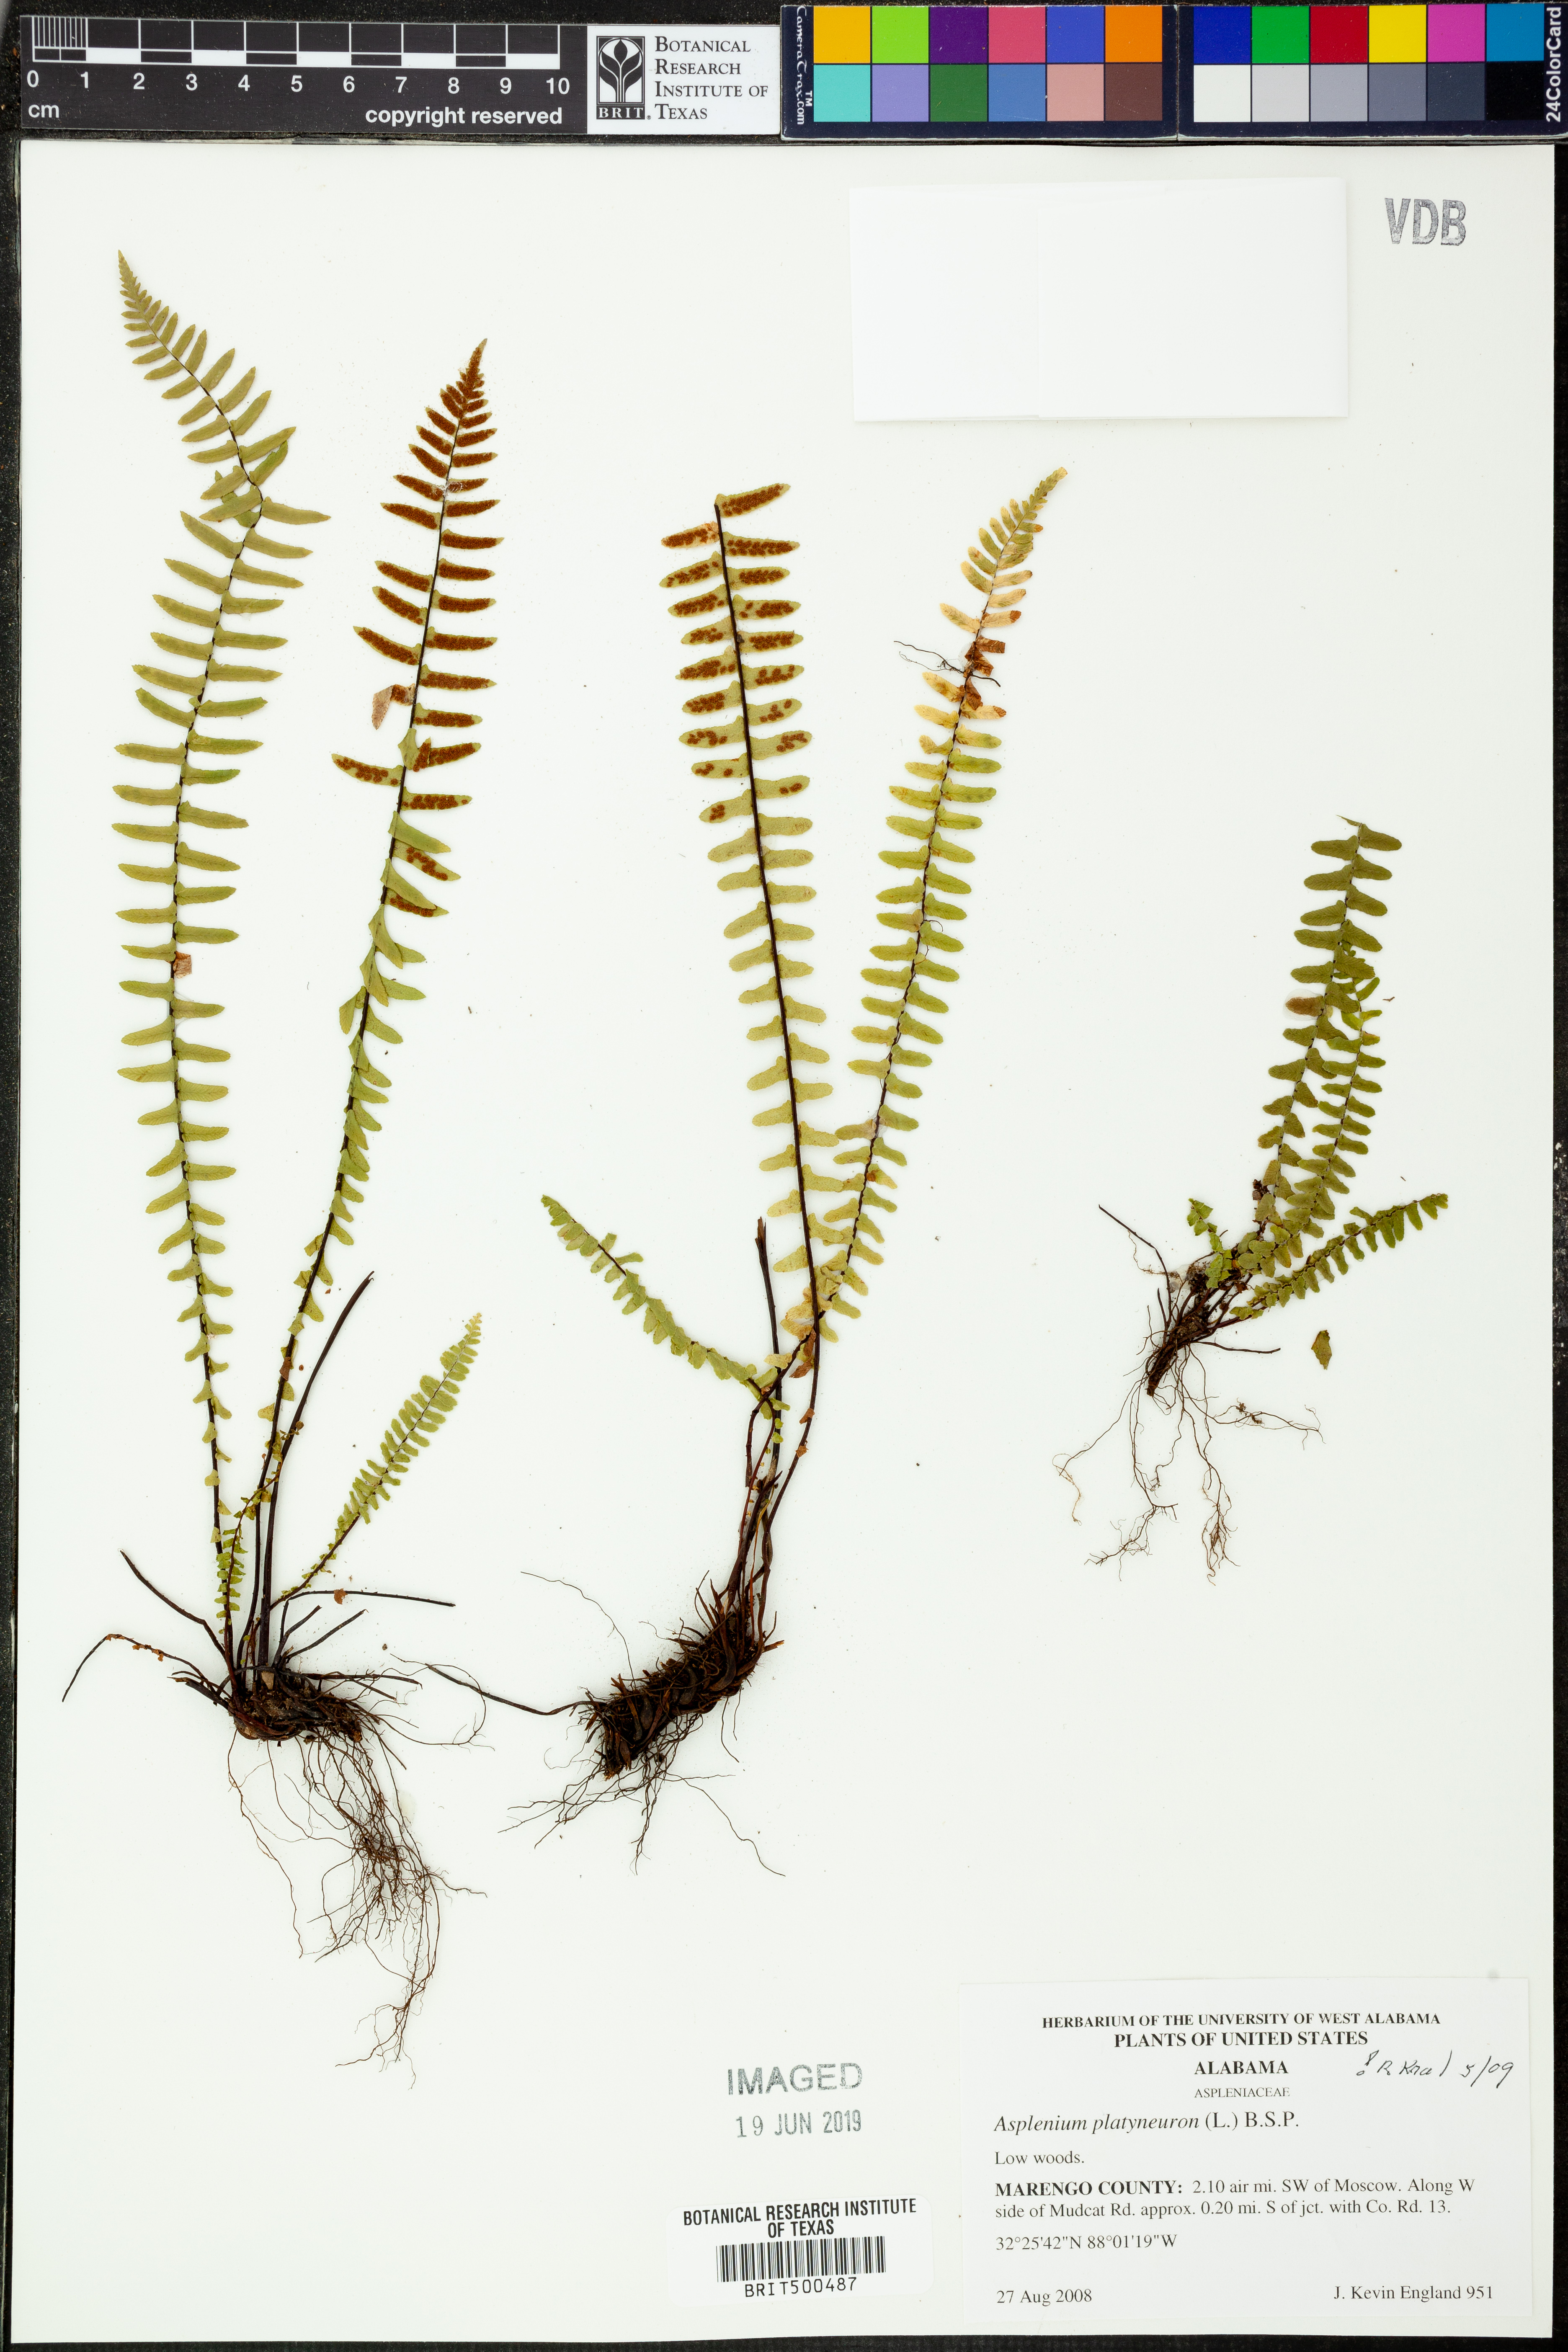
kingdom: Plantae
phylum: Tracheophyta
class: Polypodiopsida
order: Polypodiales
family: Aspleniaceae
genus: Asplenium
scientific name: Asplenium platyneuron
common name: Ebony spleenwort
